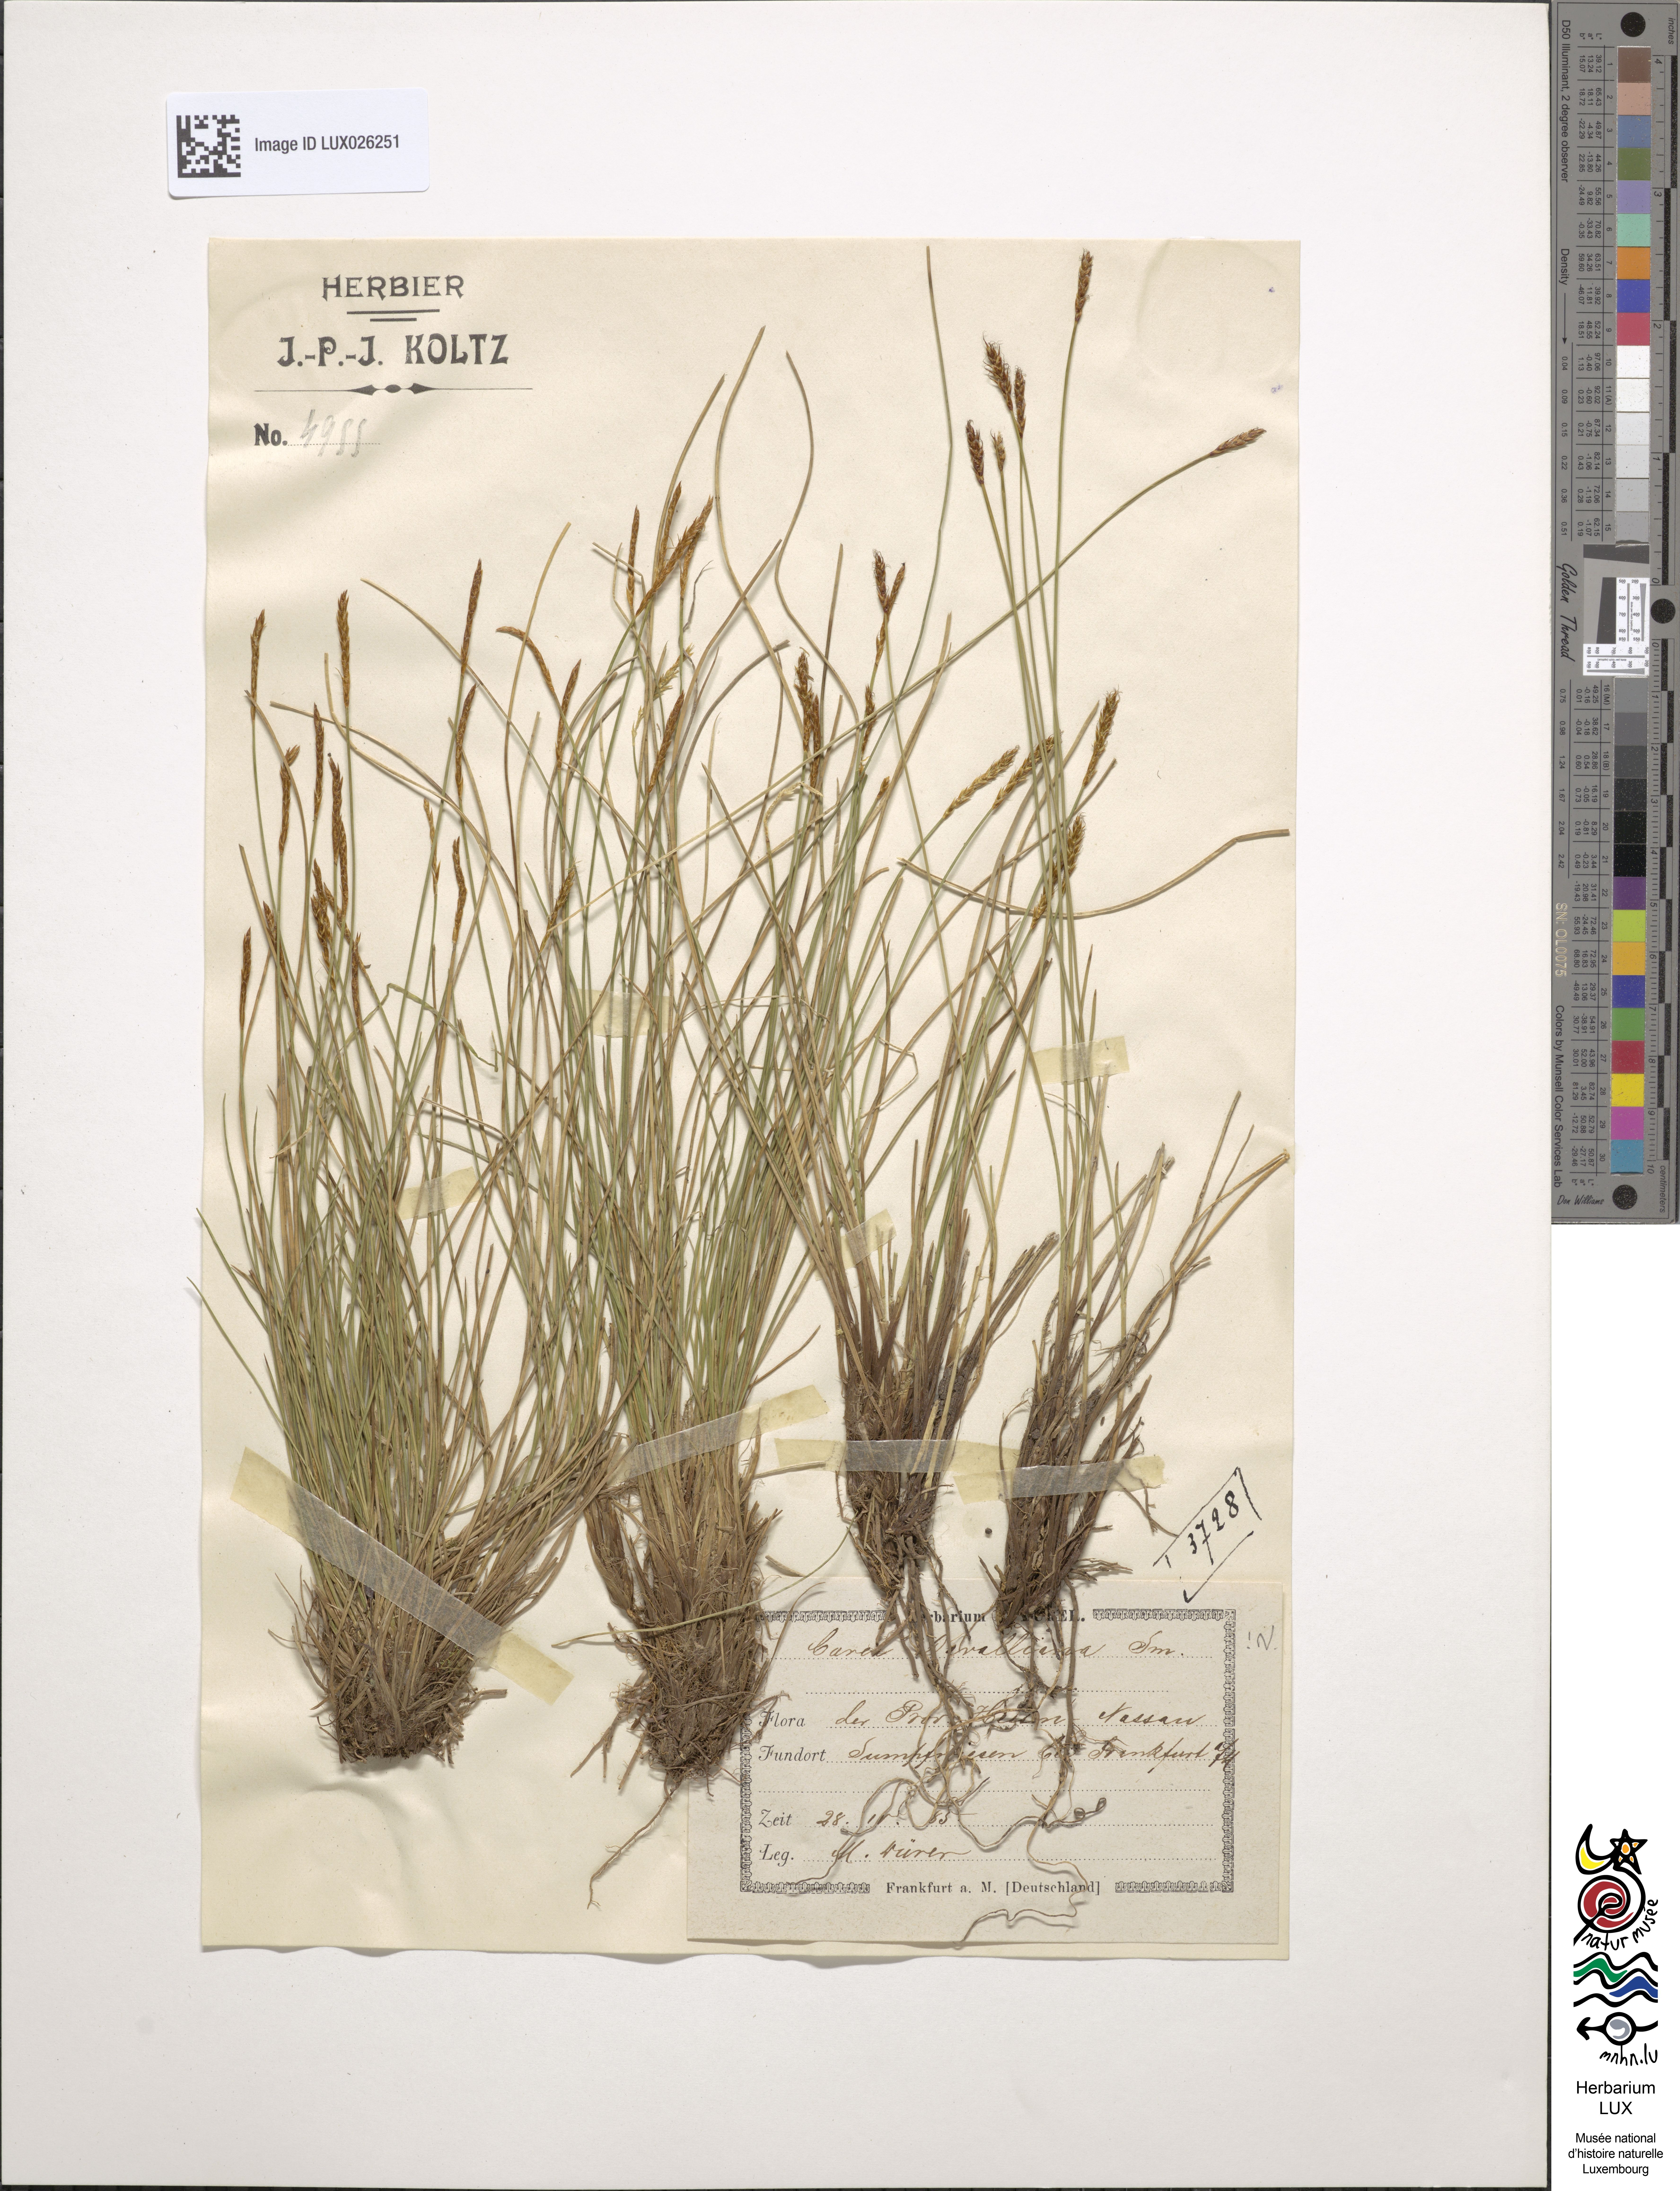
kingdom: Plantae
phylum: Tracheophyta
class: Liliopsida
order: Poales
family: Cyperaceae
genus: Carex
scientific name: Carex davalliana
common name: Davall's sedge
